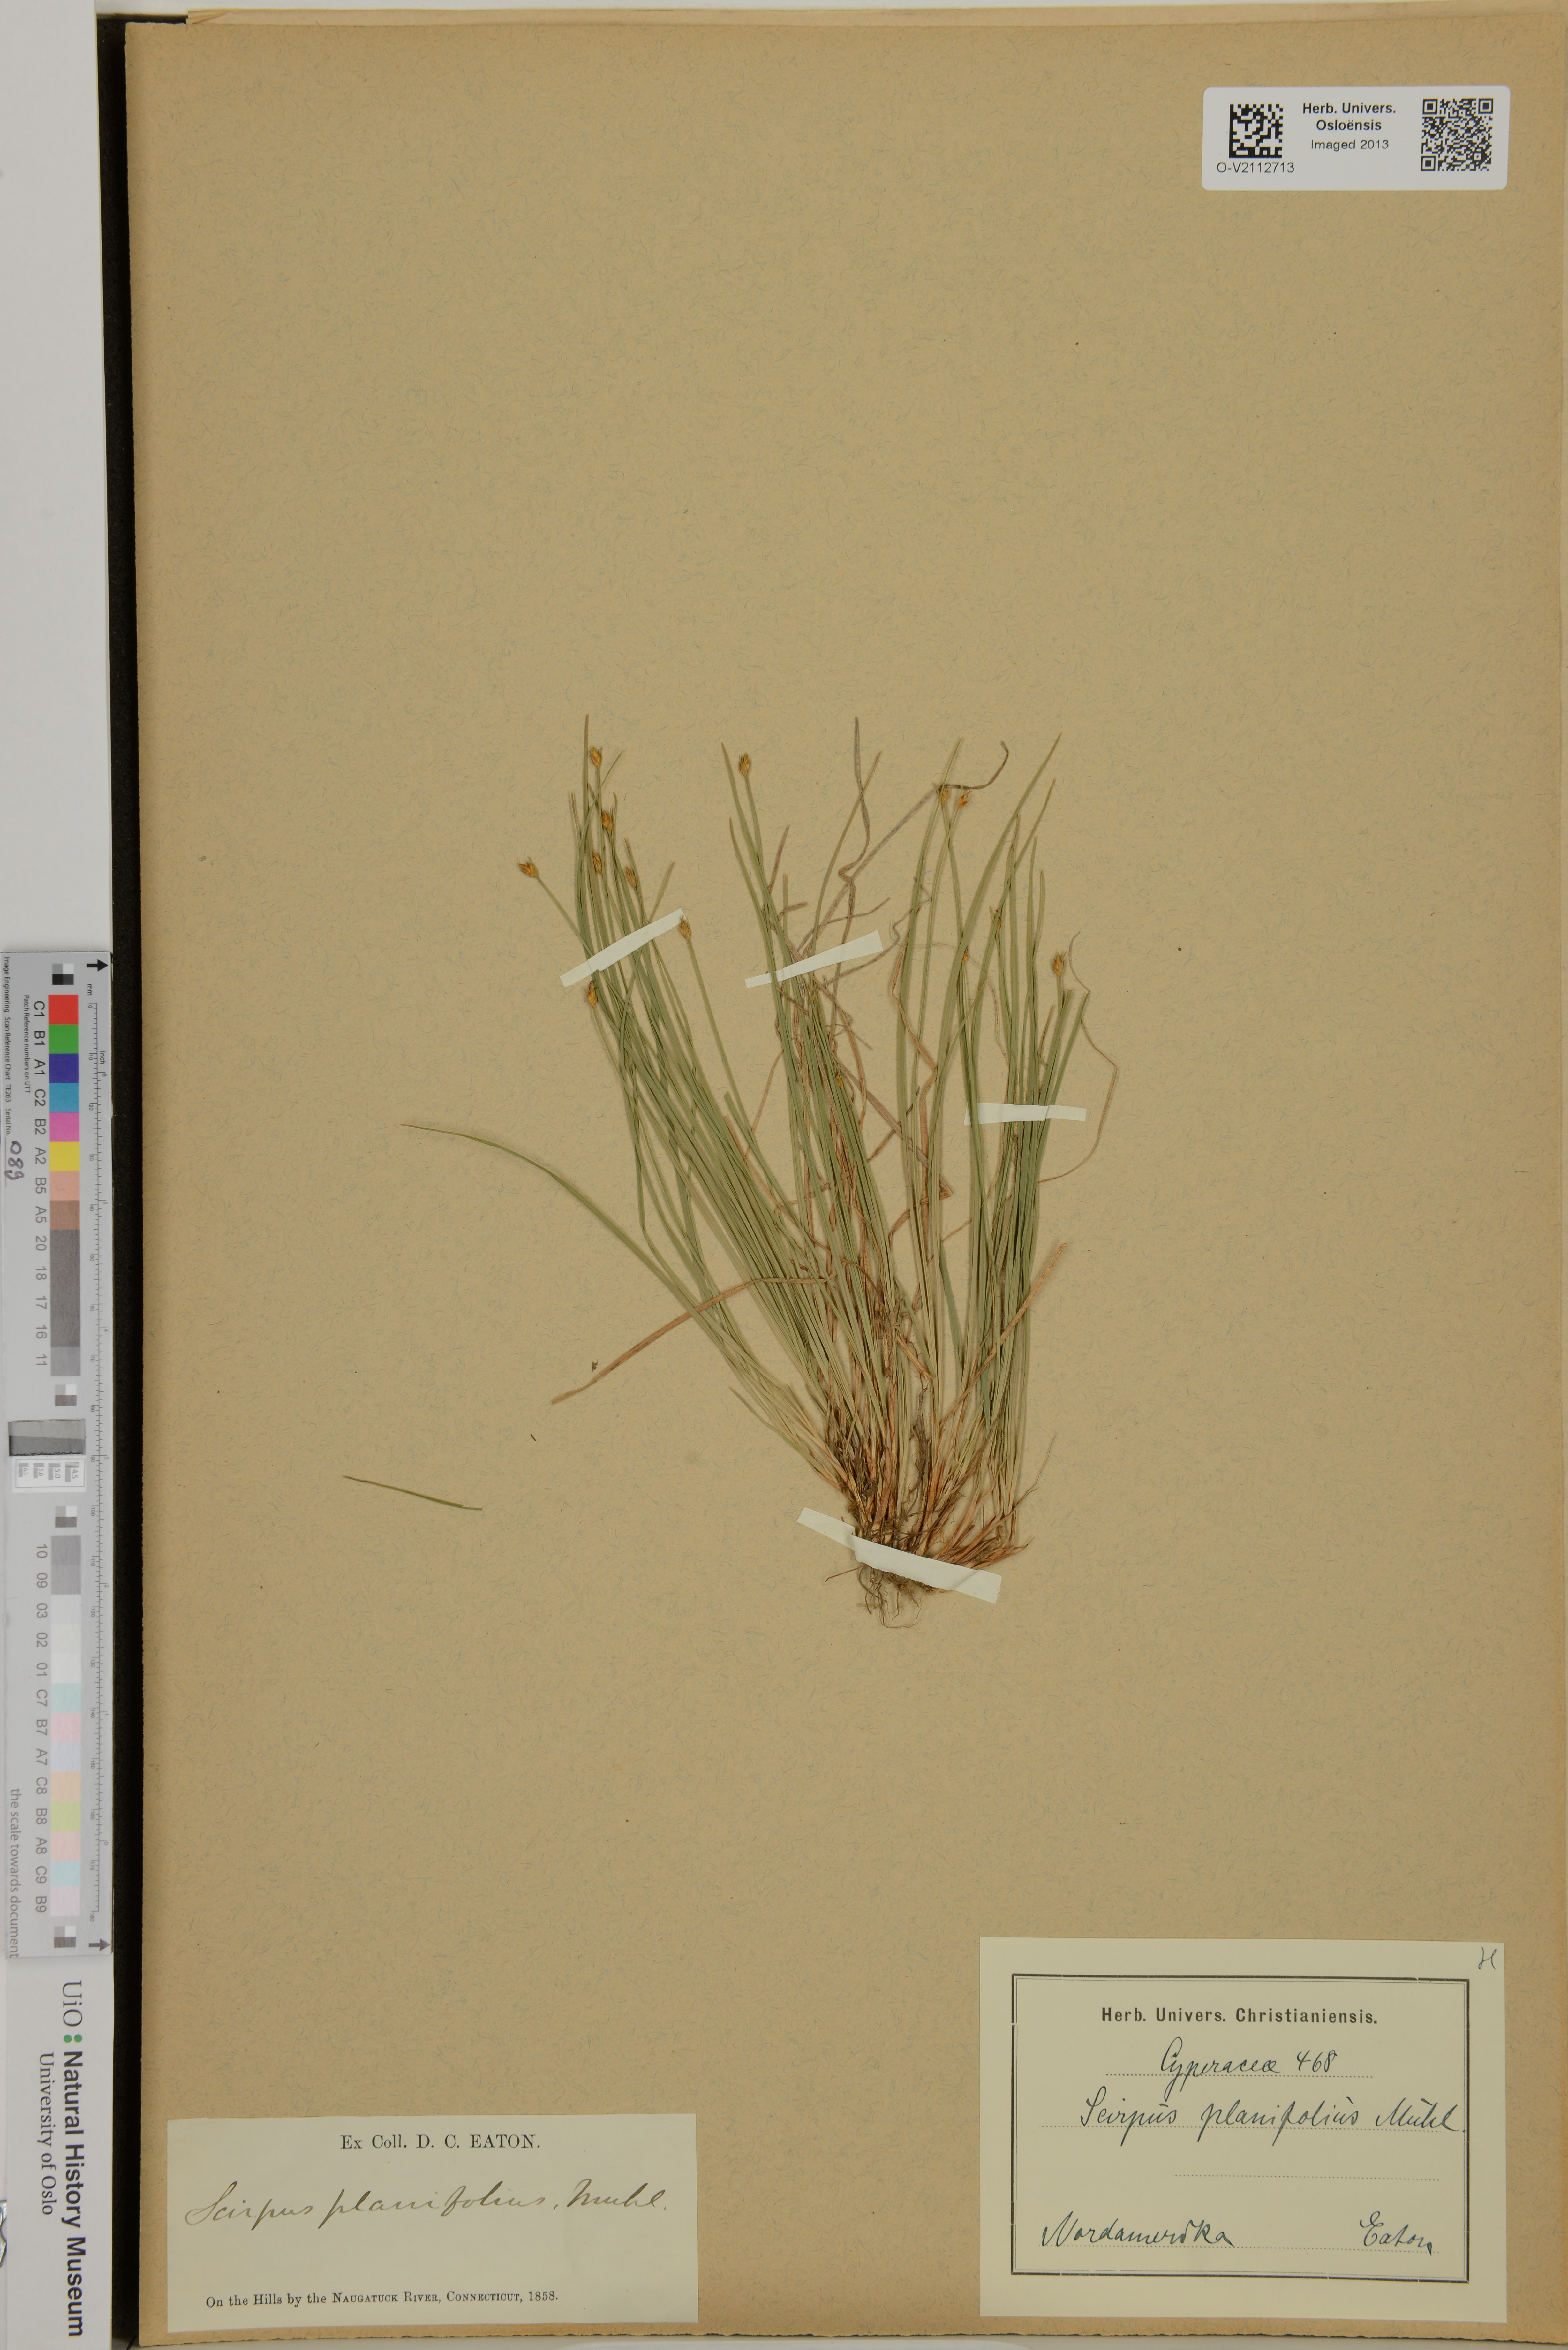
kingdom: Plantae
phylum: Tracheophyta
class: Liliopsida
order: Poales
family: Cyperaceae
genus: Blysmus
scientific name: Blysmus compressus
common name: Flat-sedge
